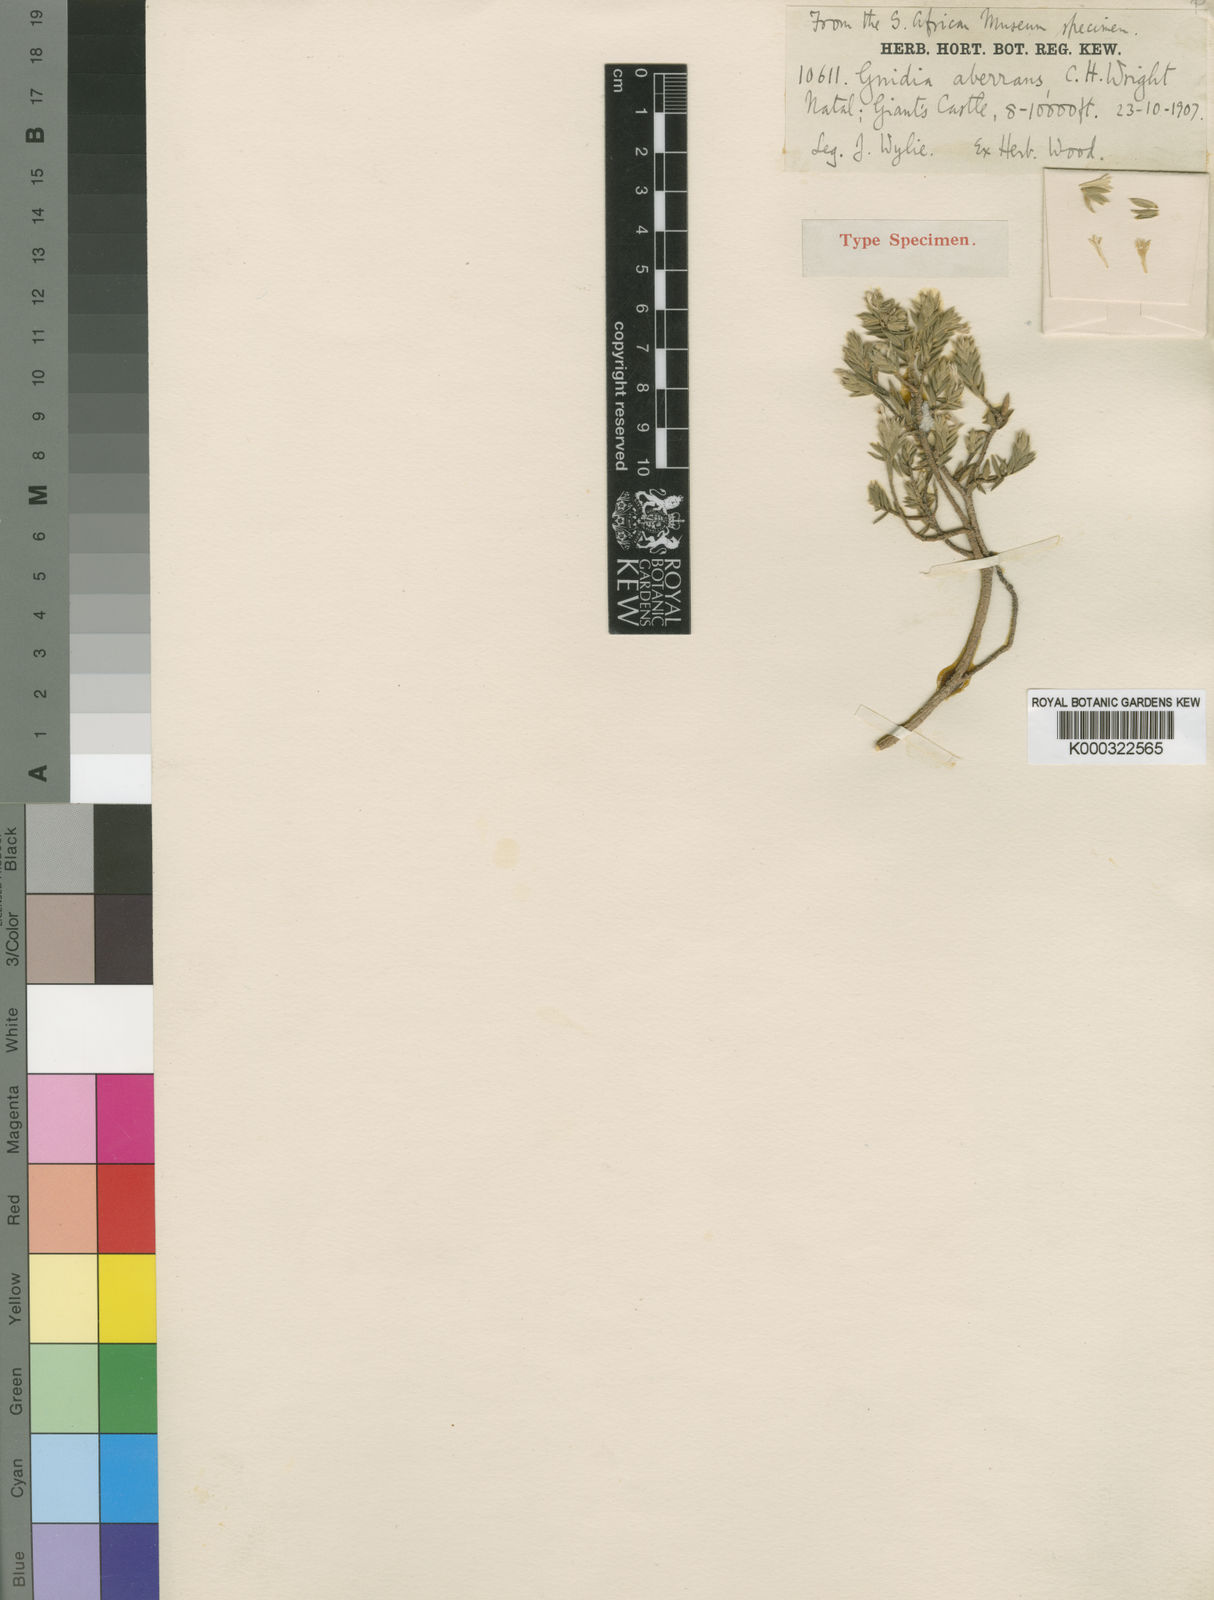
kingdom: Plantae
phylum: Tracheophyta
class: Magnoliopsida
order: Malvales
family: Thymelaeaceae
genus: Gnidia
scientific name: Gnidia albosericea
